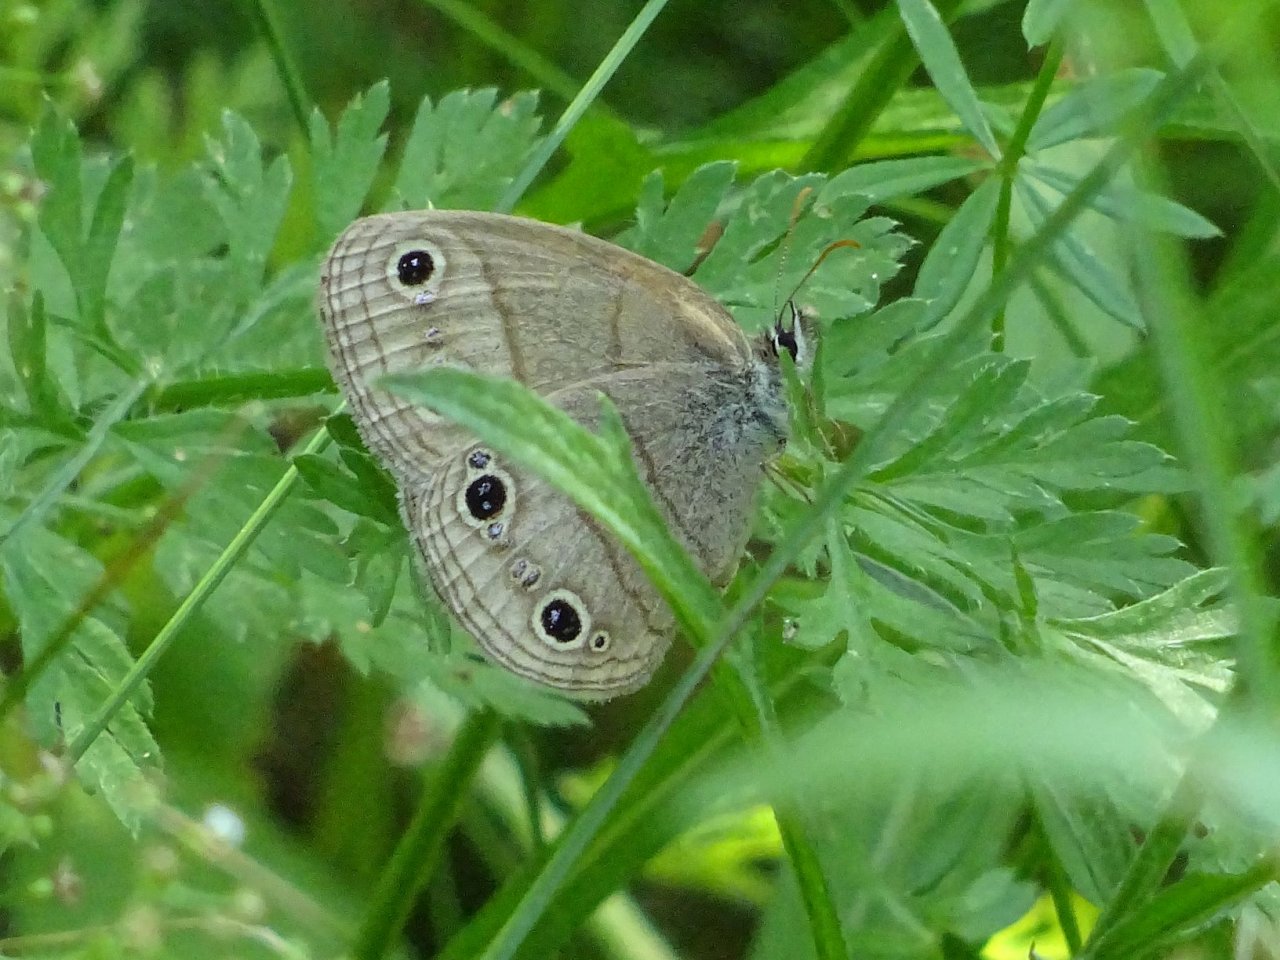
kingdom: Animalia
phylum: Arthropoda
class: Insecta
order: Lepidoptera
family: Nymphalidae
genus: Euptychia
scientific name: Euptychia cymela
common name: Little Wood Satyr
